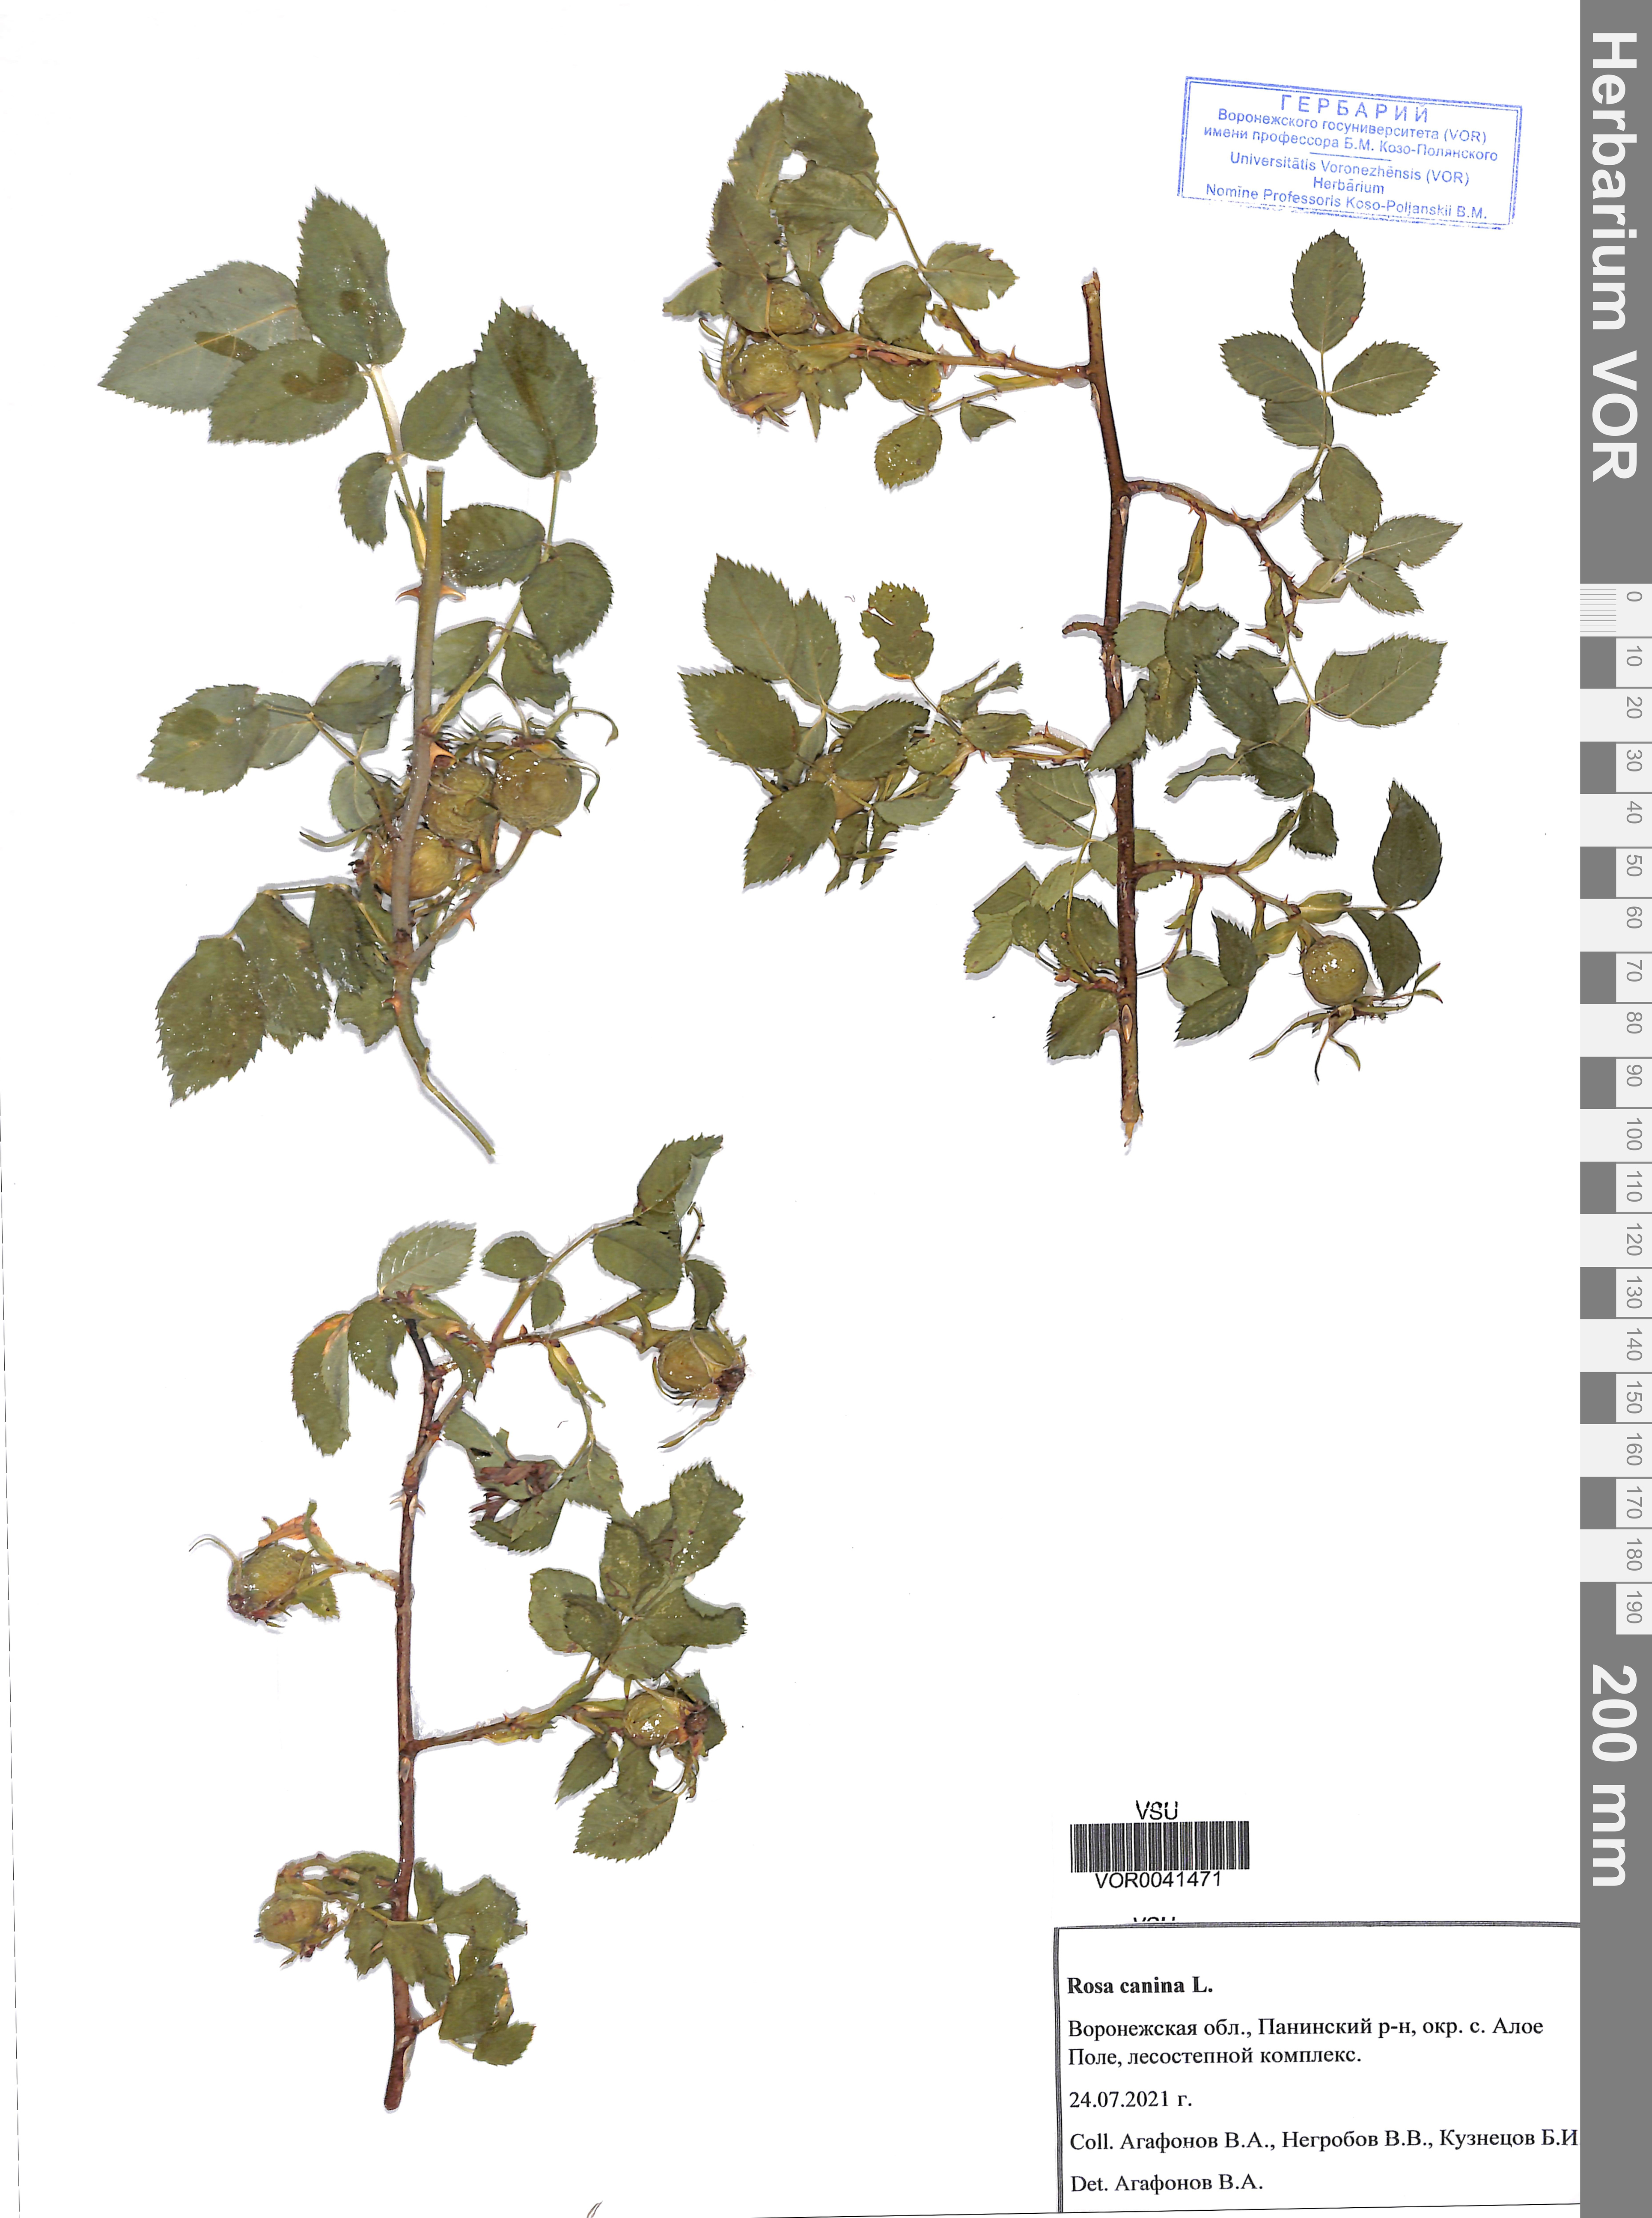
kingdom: Plantae
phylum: Tracheophyta
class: Magnoliopsida
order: Rosales
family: Rosaceae
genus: Rosa
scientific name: Rosa canina
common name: Dog rose
